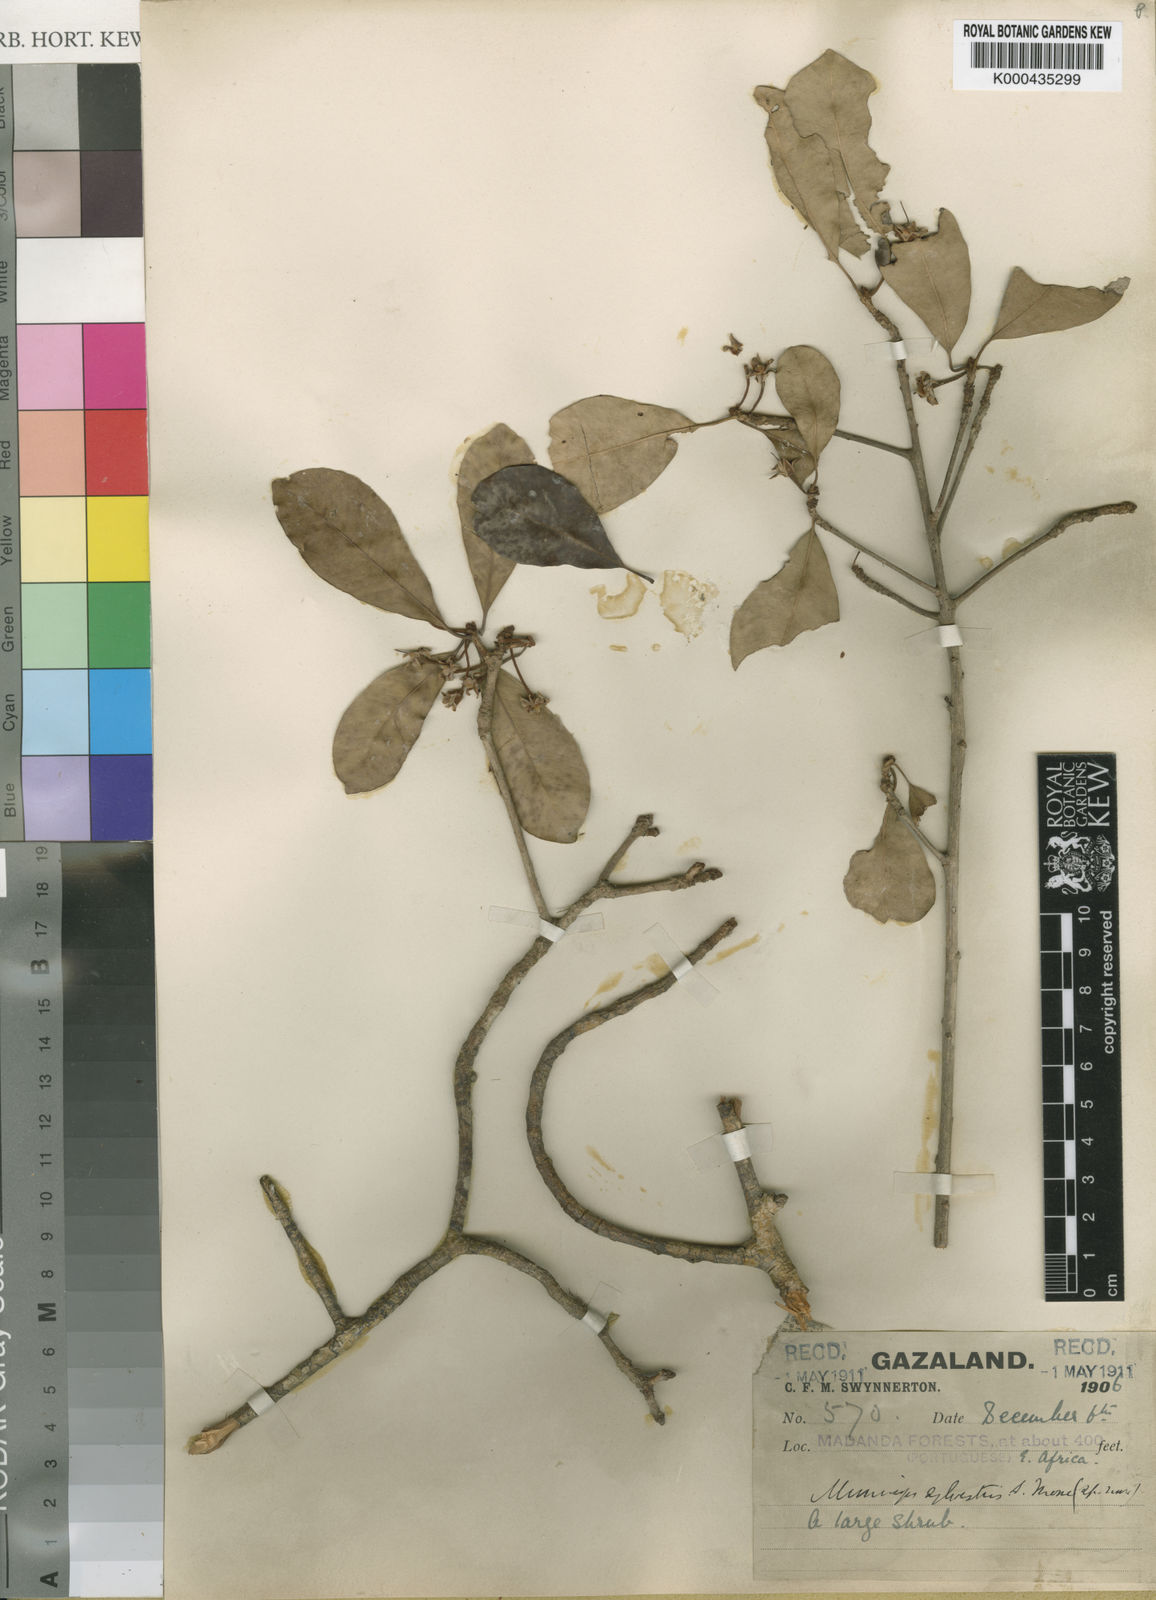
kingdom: Plantae
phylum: Tracheophyta
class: Magnoliopsida
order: Ericales
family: Sapotaceae
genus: Vitellariopsis
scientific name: Vitellariopsis kirkii
